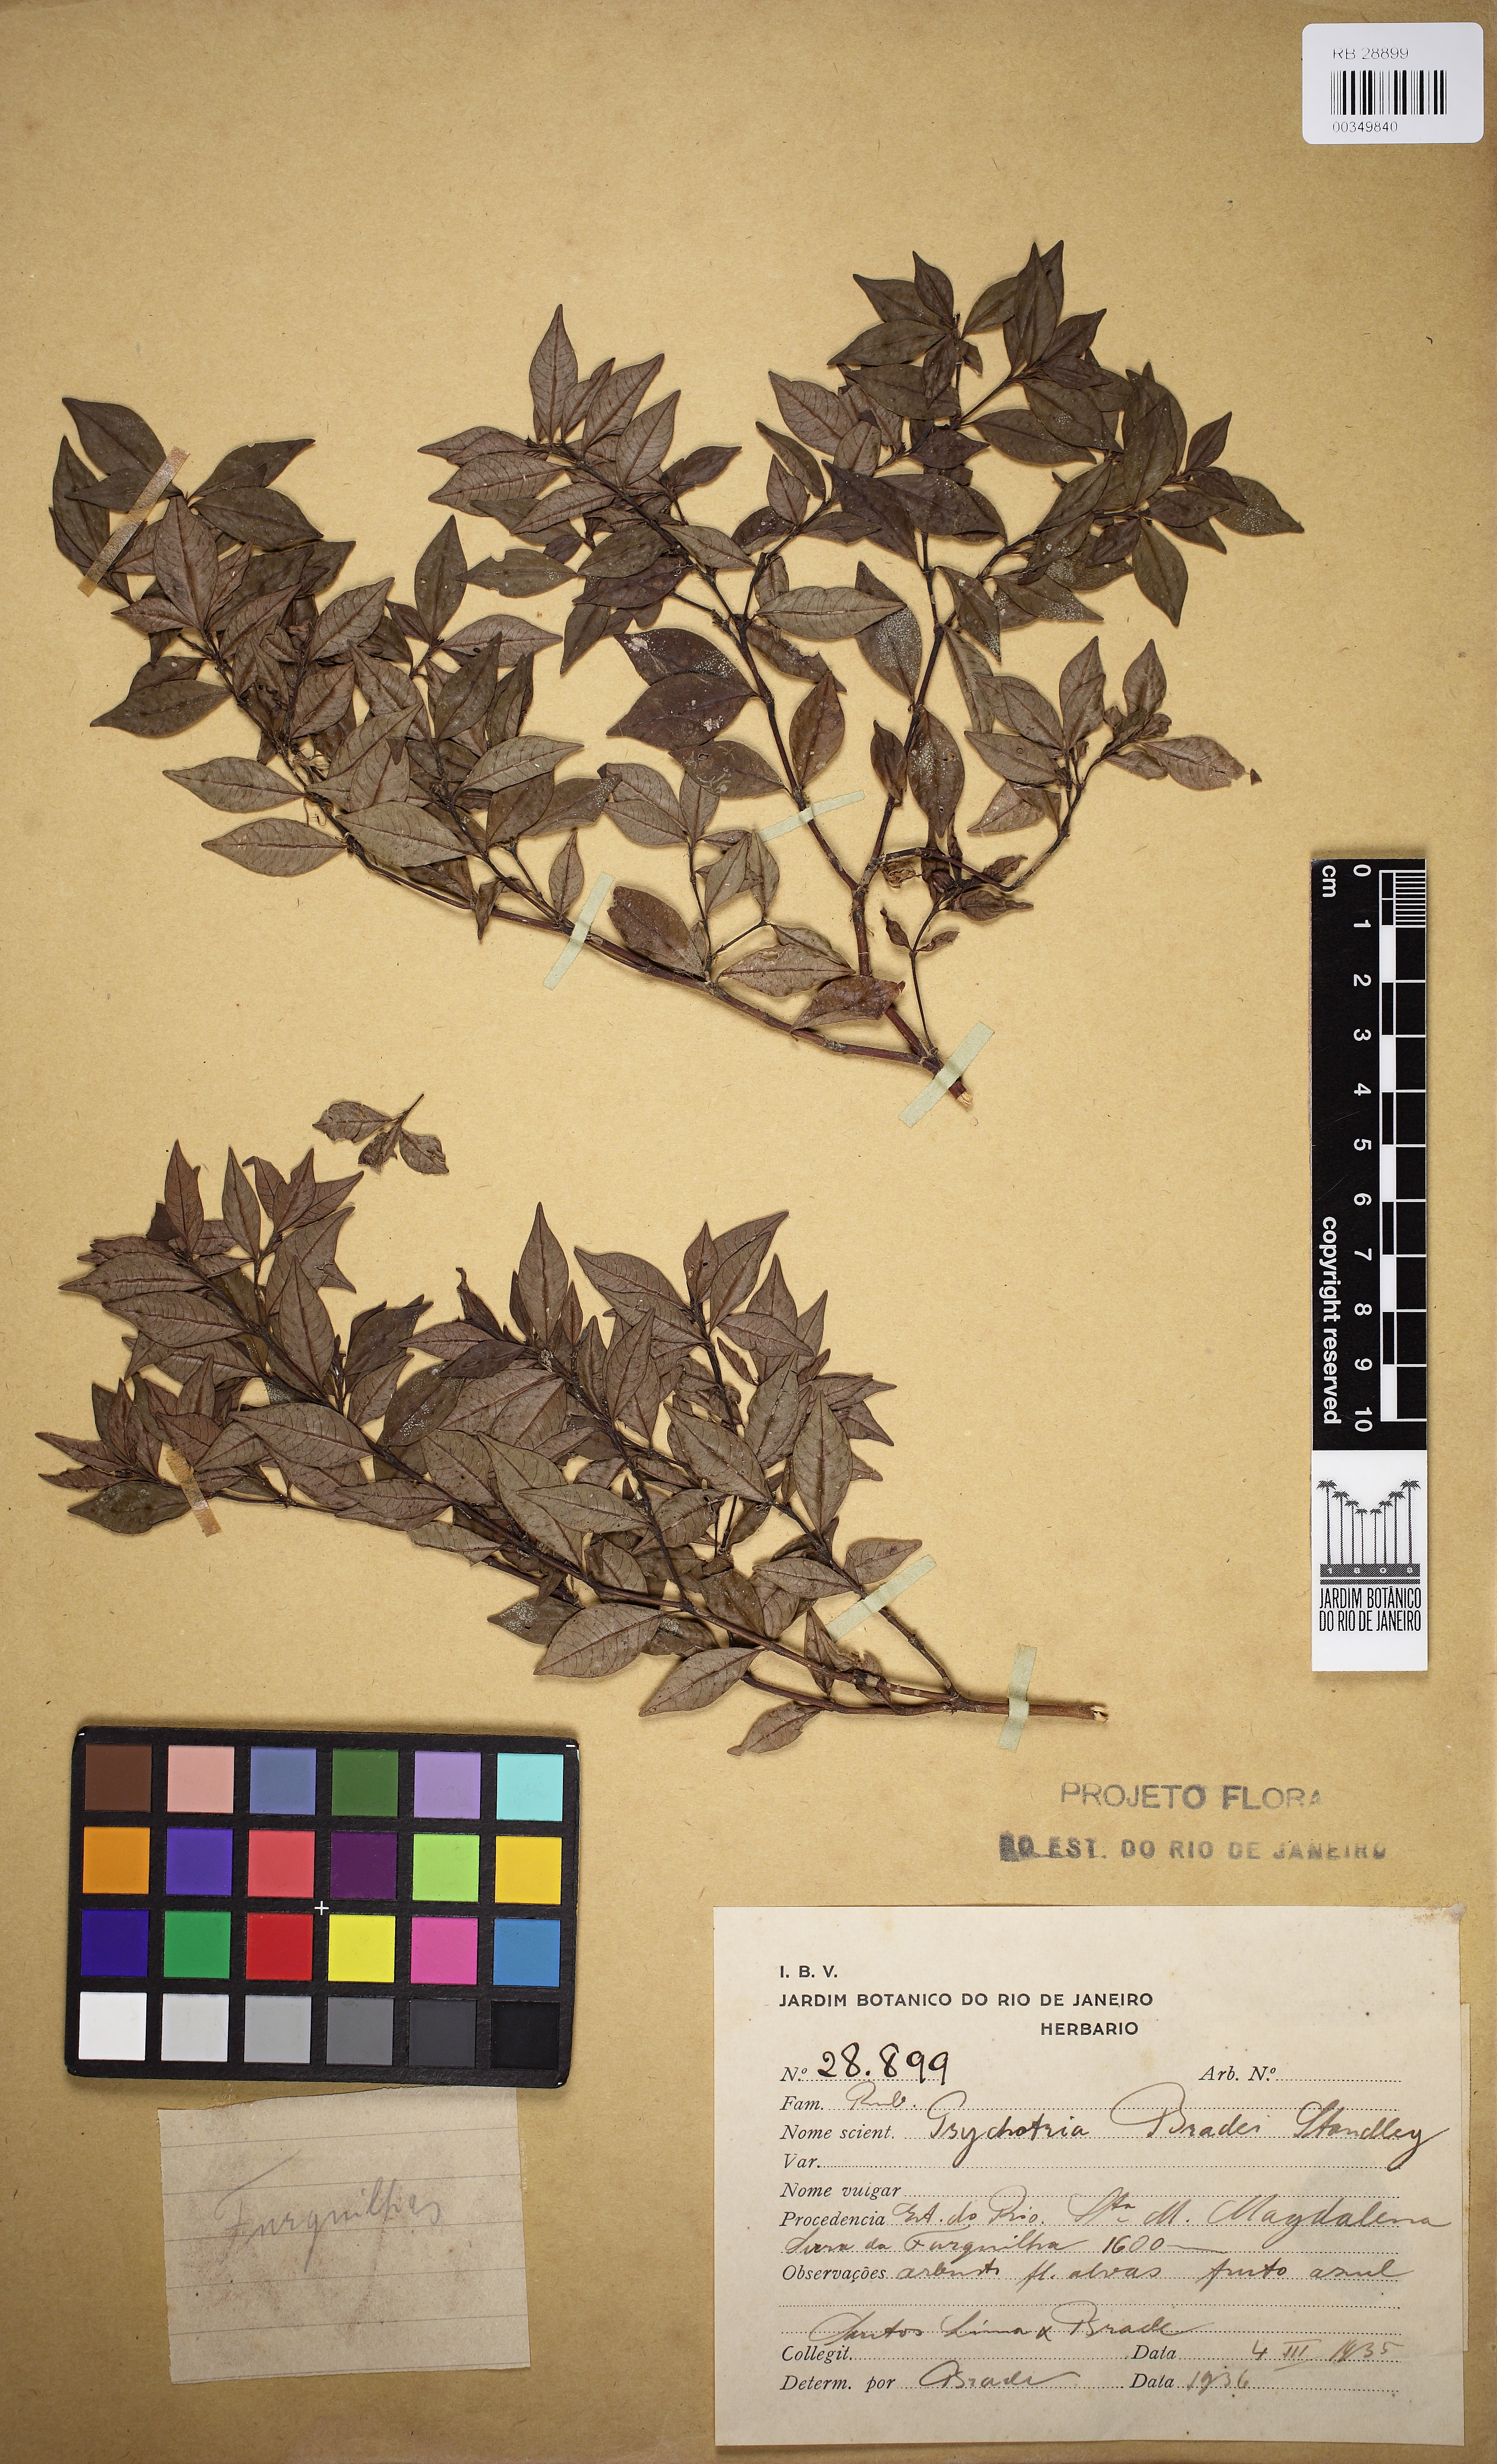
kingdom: Plantae
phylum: Tracheophyta
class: Magnoliopsida
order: Gentianales
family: Rubiaceae
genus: Psychotria
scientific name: Psychotria bradei
